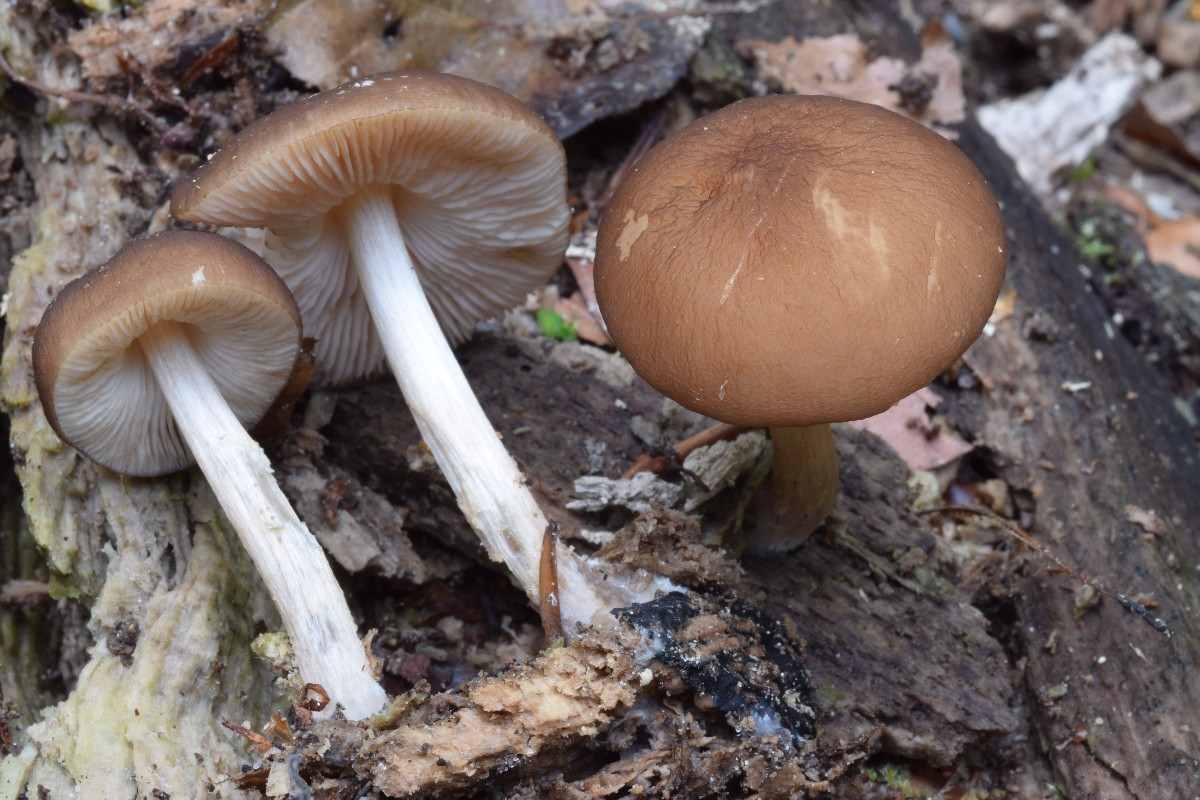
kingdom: Fungi
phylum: Basidiomycota
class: Agaricomycetes
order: Agaricales
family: Pluteaceae
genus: Pluteus
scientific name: Pluteus phlebophorus
